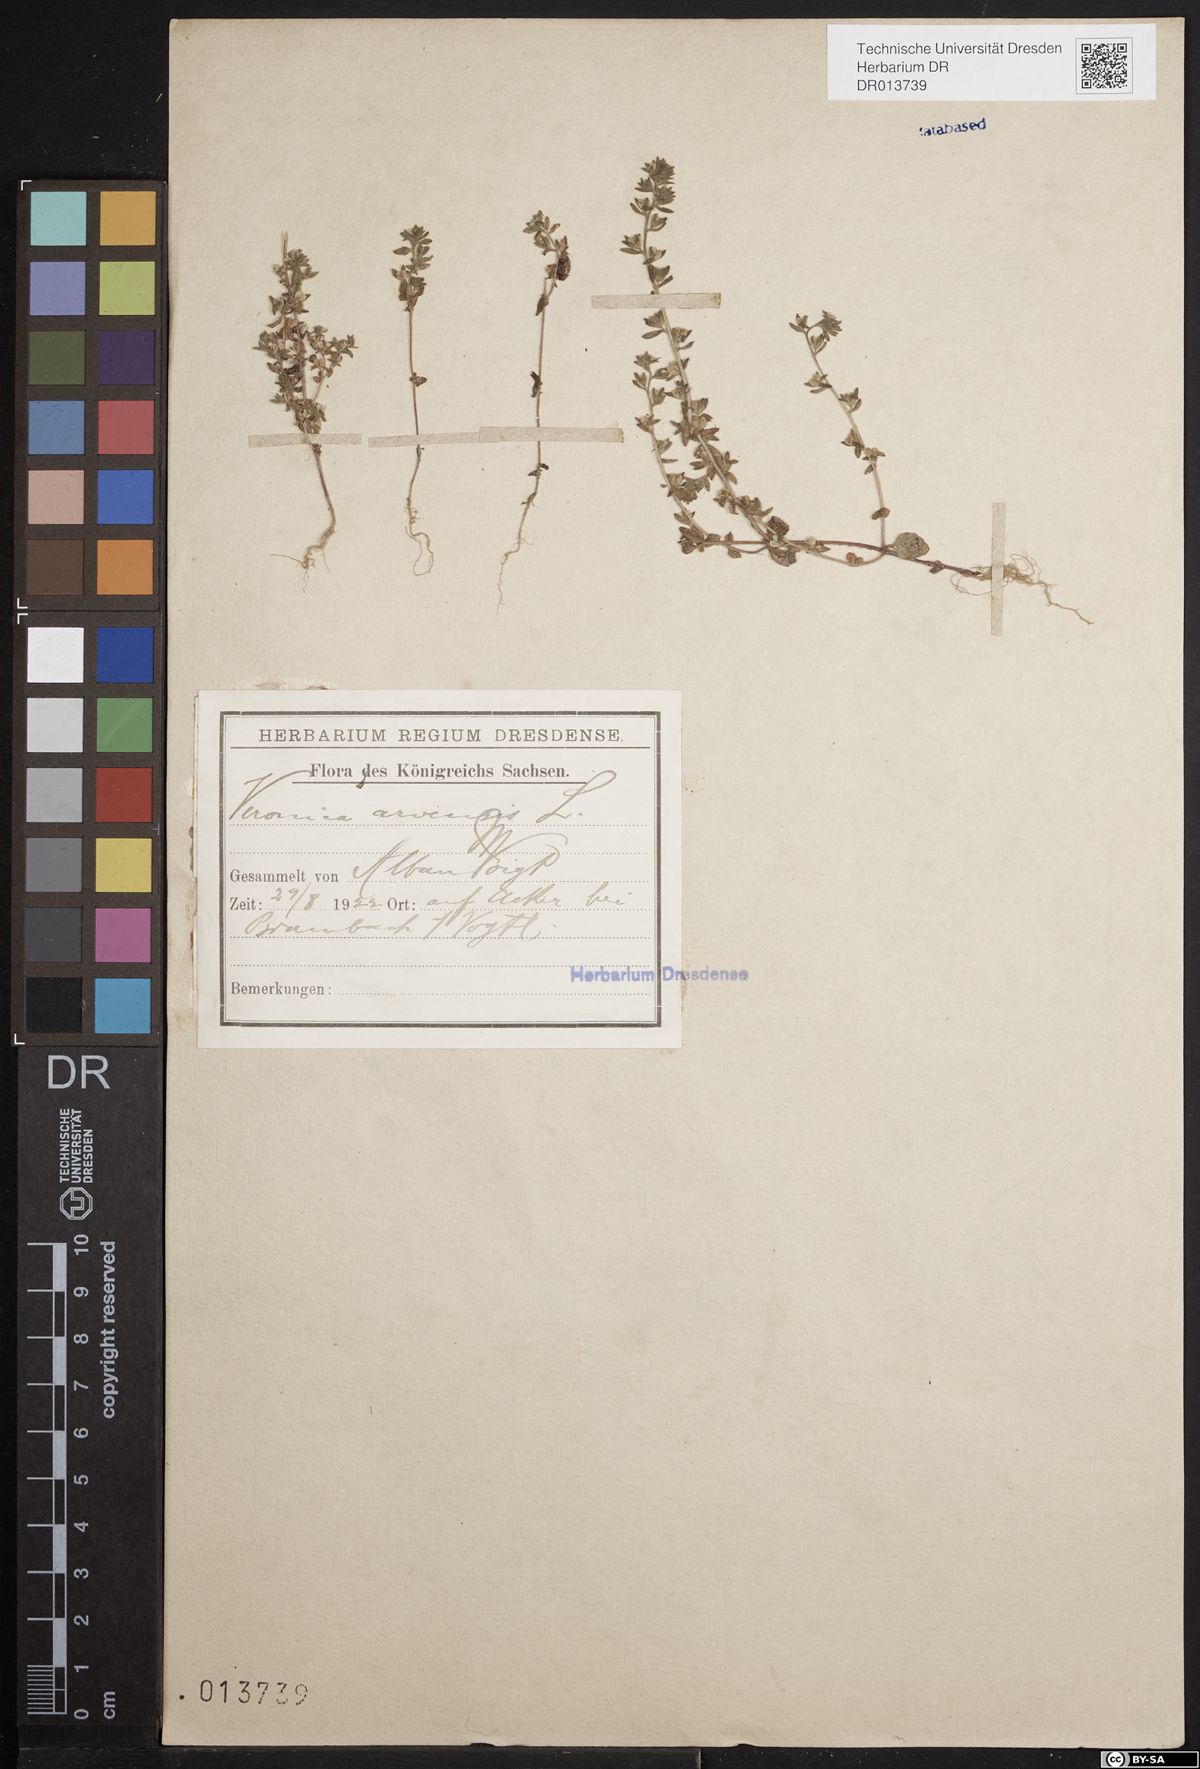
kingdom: Plantae
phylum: Tracheophyta
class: Magnoliopsida
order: Lamiales
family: Plantaginaceae
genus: Veronica
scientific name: Veronica arvensis
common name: Corn speedwell
